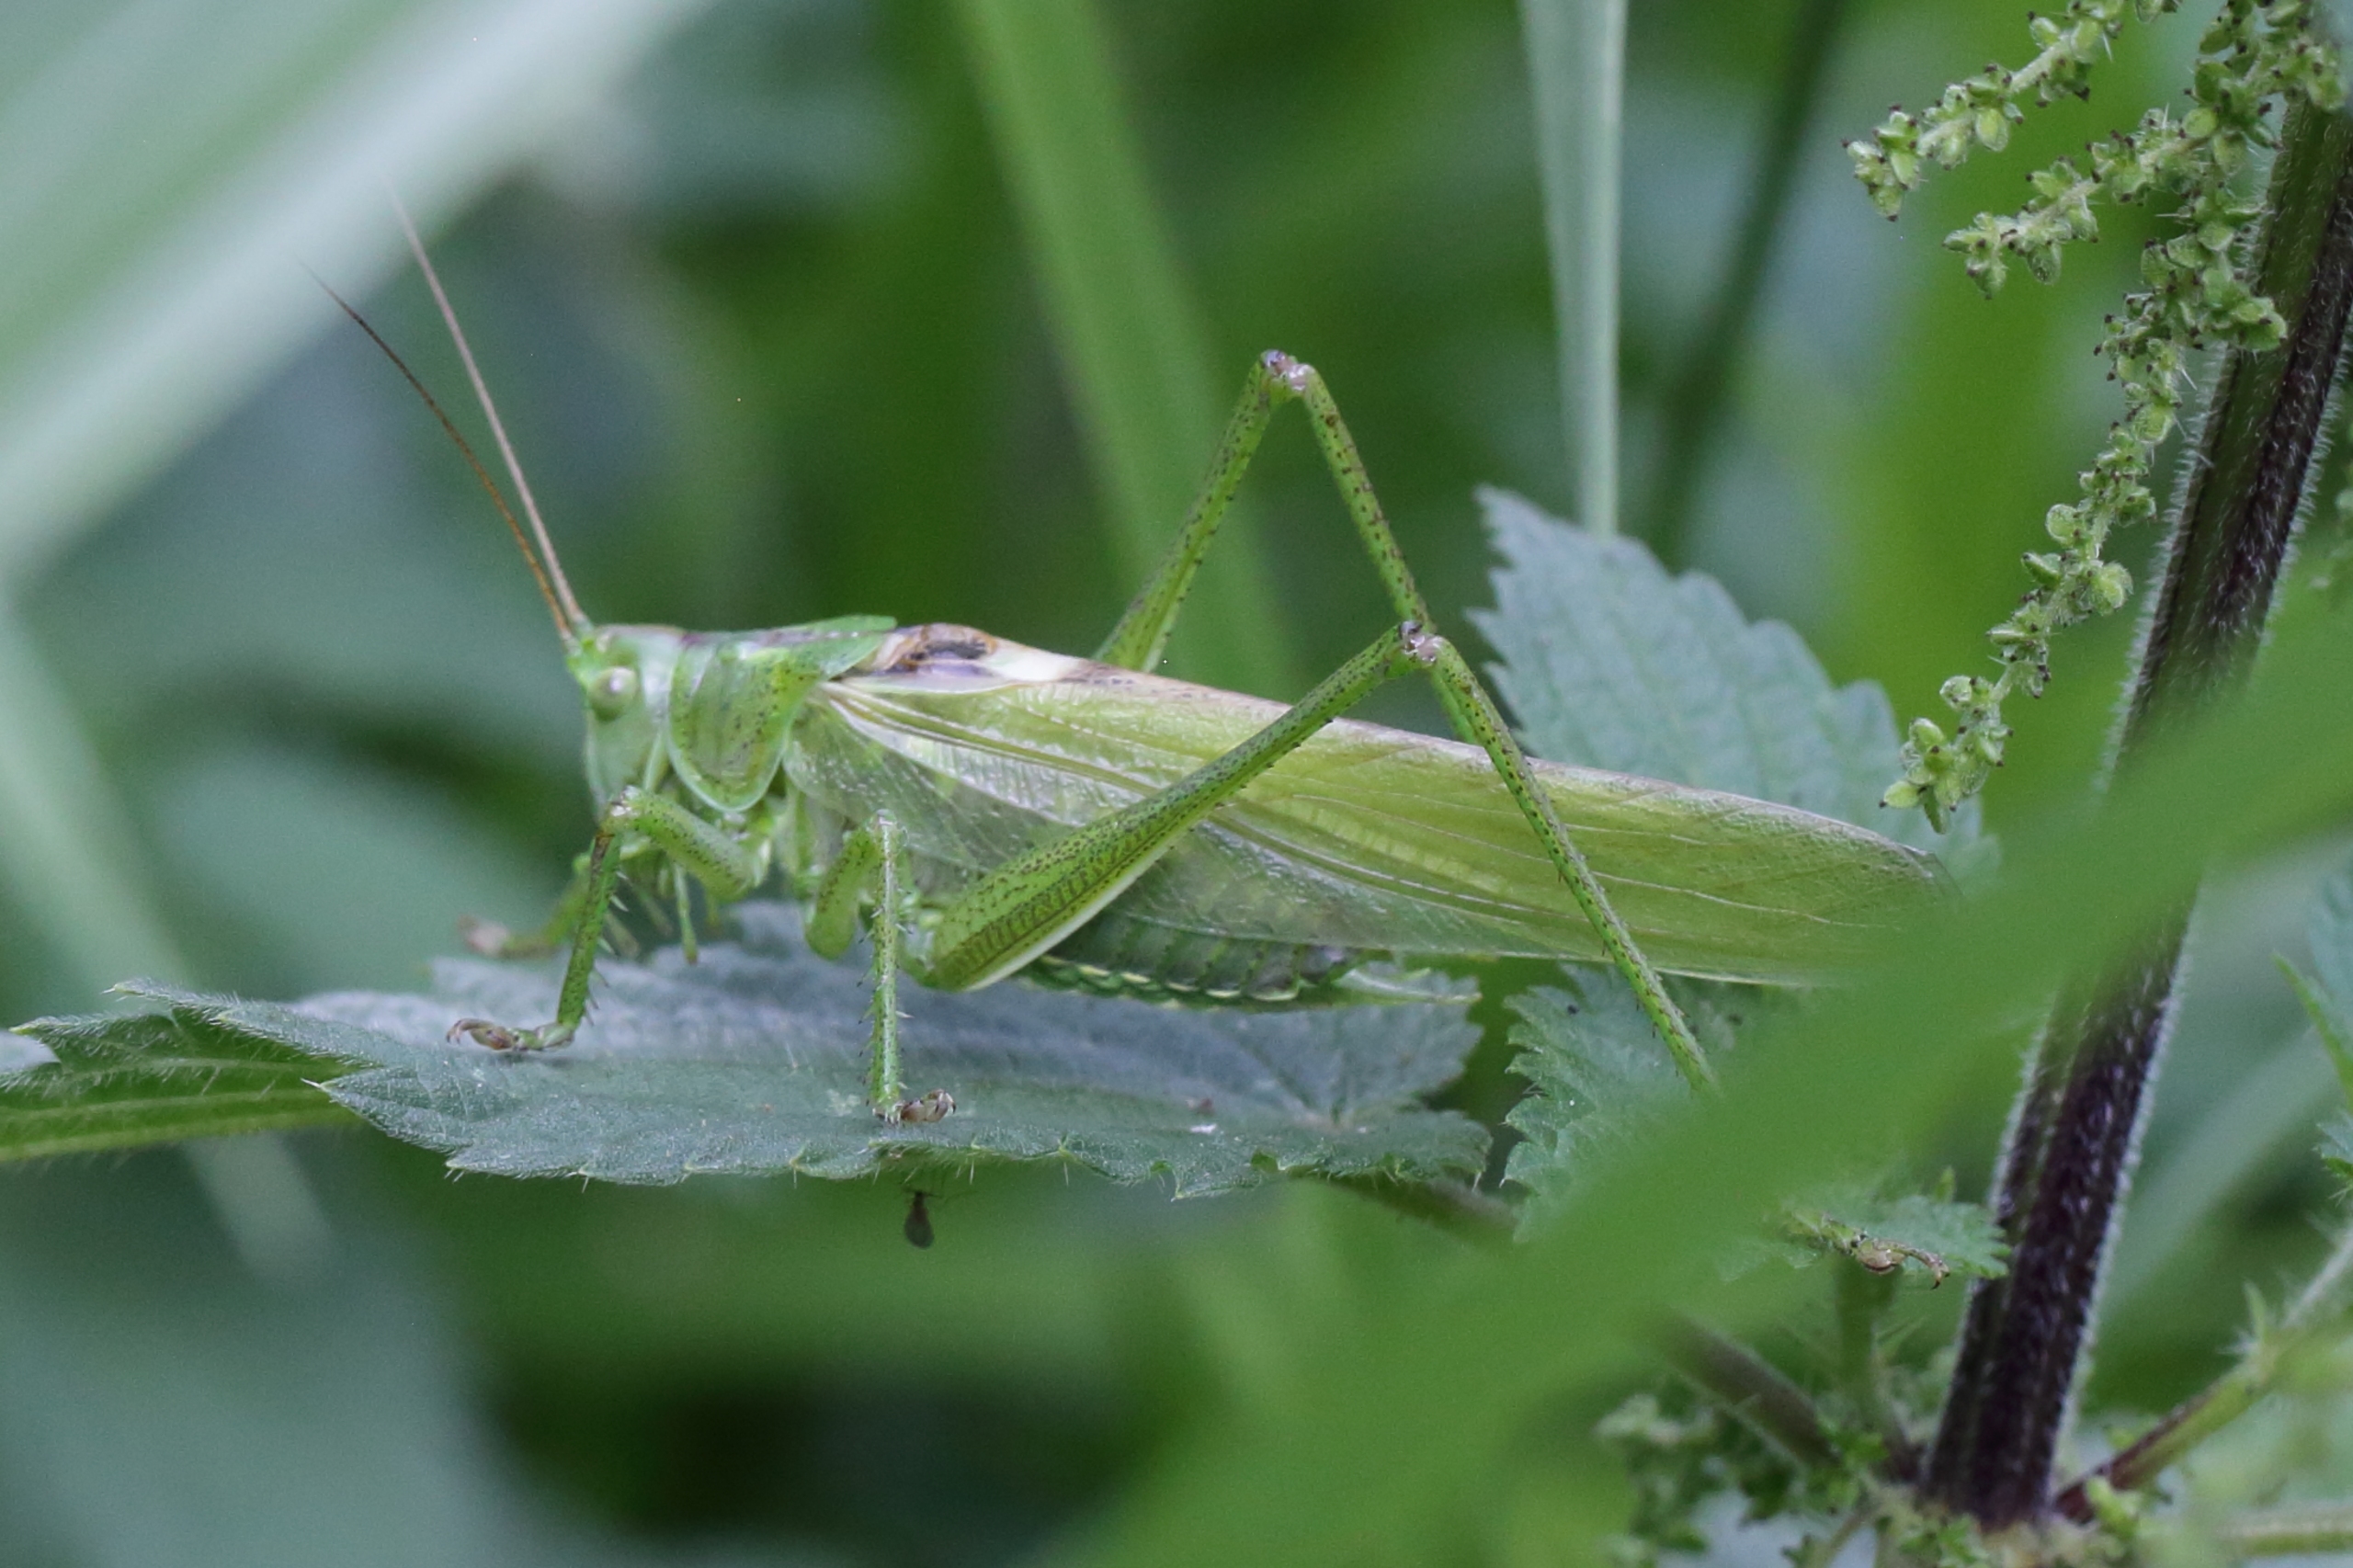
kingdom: Animalia
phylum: Arthropoda
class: Insecta
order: Orthoptera
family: Tettigoniidae
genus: Tettigonia
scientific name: Tettigonia viridissima
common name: Stor grøn løvgræshoppe
